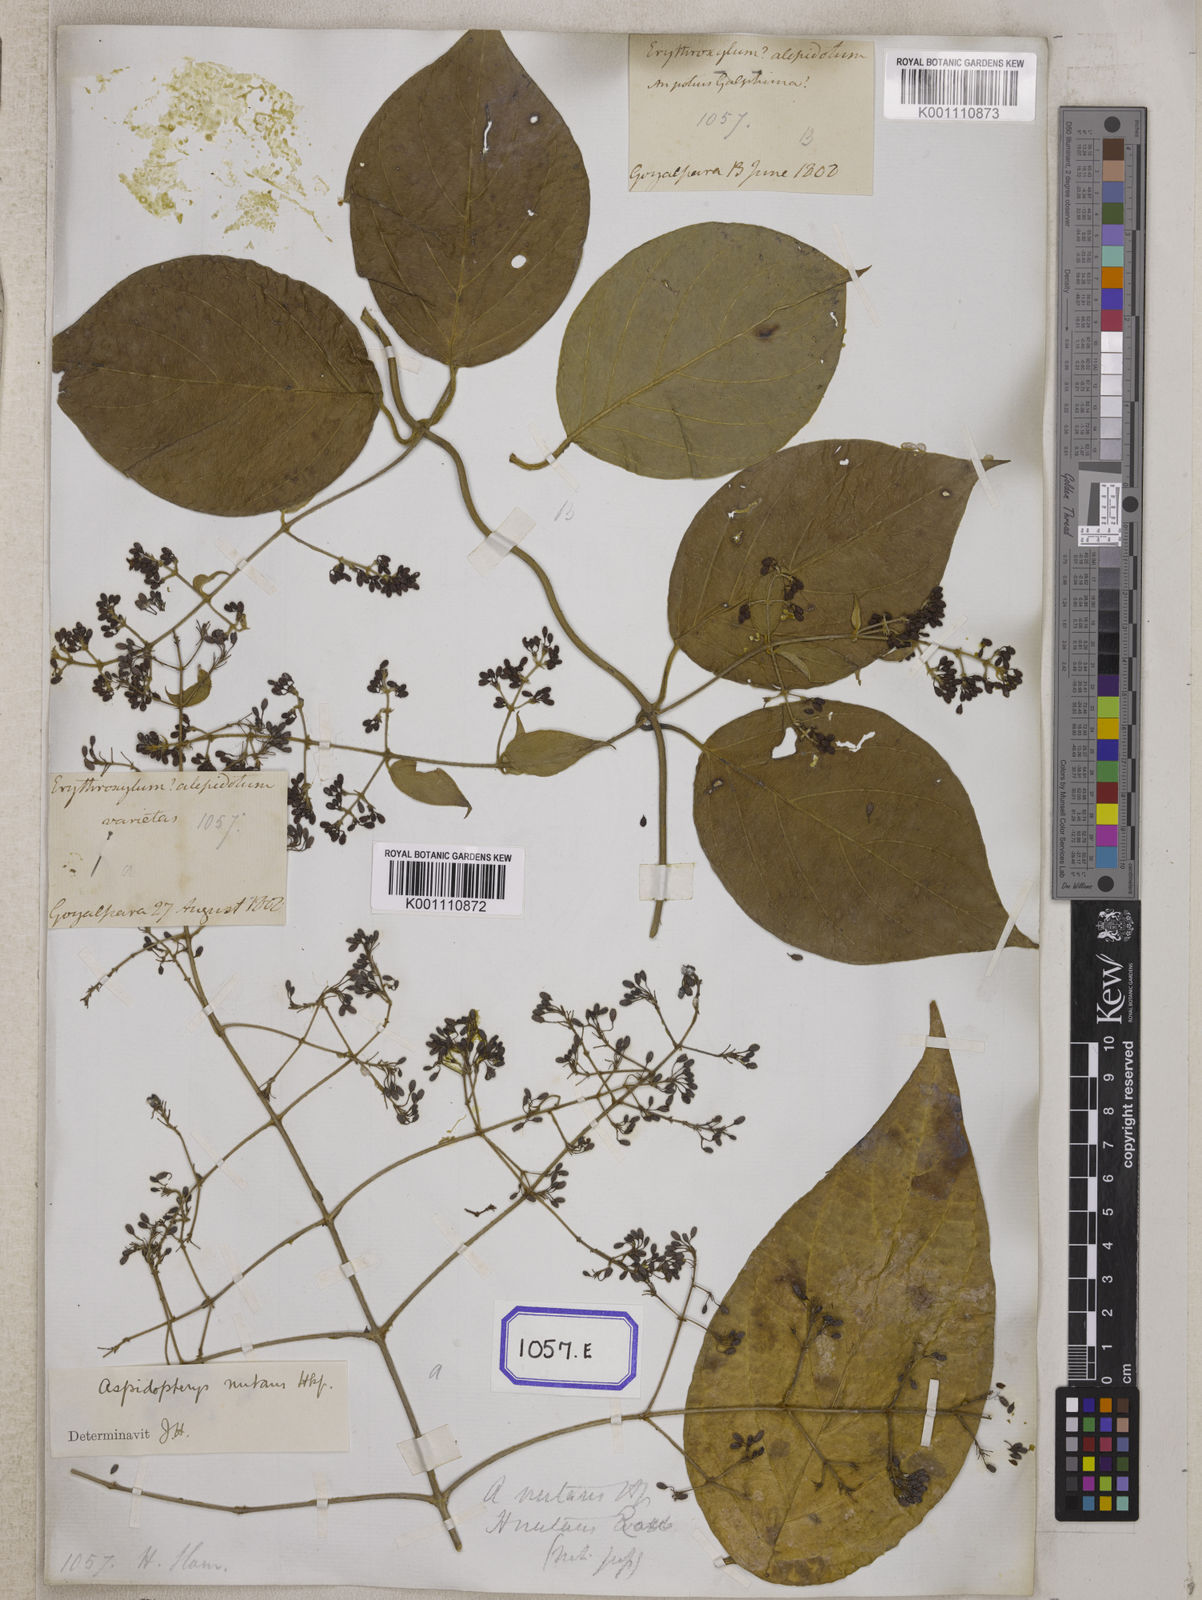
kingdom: Plantae
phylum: Tracheophyta
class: Magnoliopsida
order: Malpighiales
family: Malpighiaceae
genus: Aspidopterys
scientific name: Aspidopterys indica
